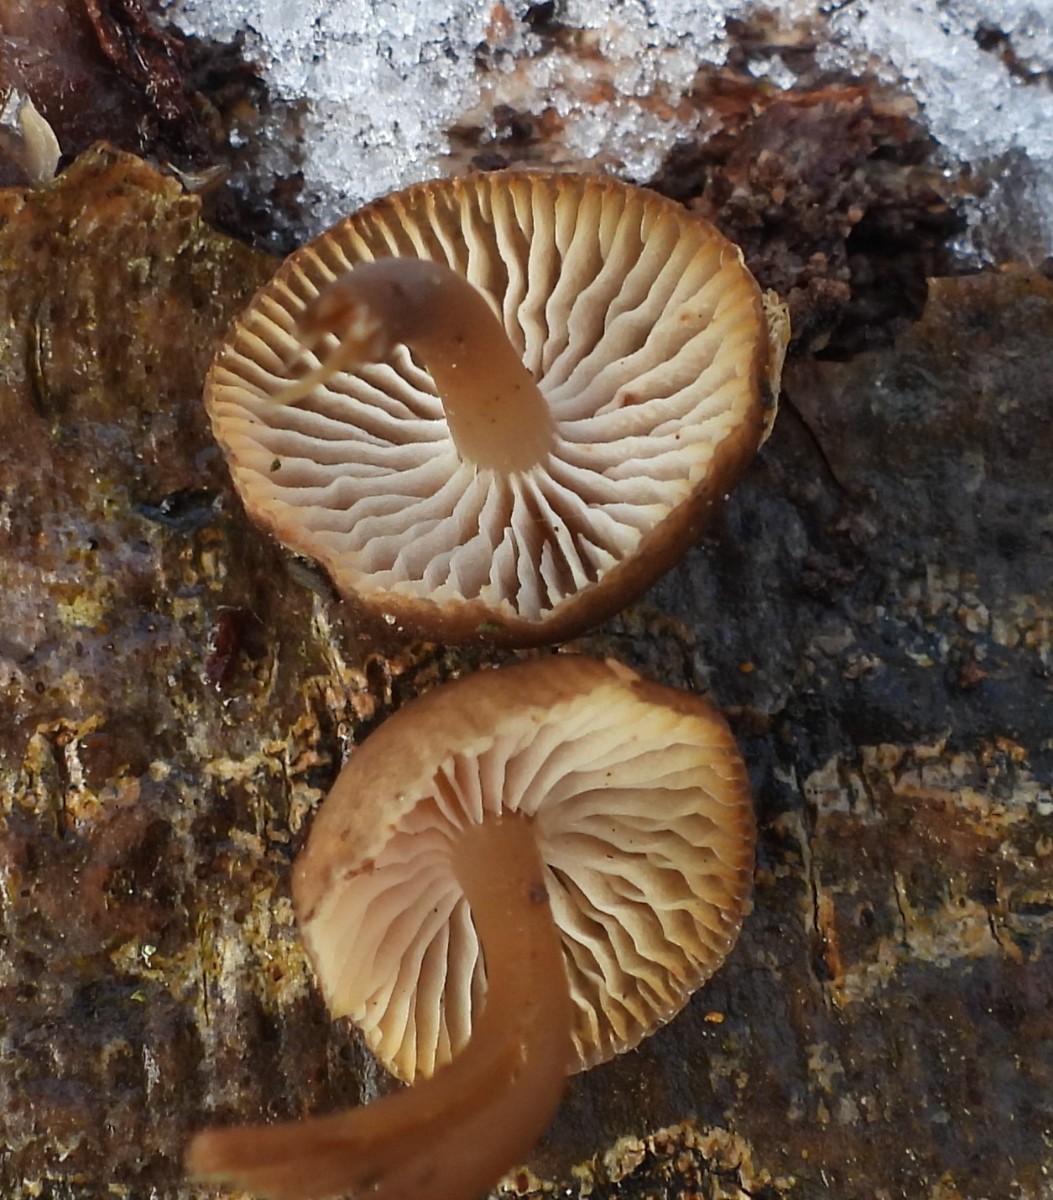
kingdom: Fungi
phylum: Basidiomycota
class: Agaricomycetes
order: Agaricales
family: Mycenaceae
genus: Mycena
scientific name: Mycena tintinnabulum
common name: vinter-huesvamp
